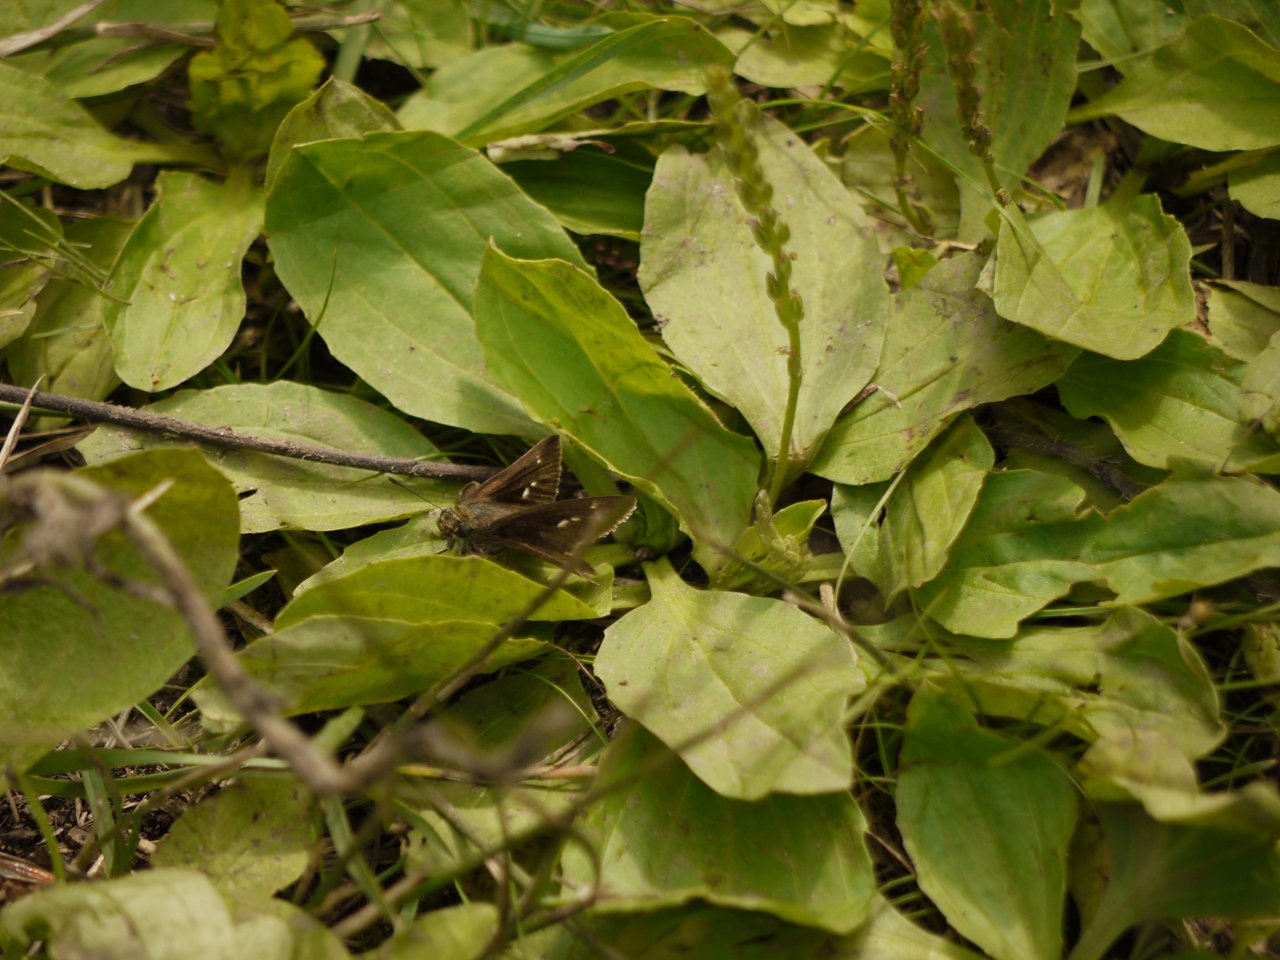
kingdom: Animalia
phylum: Arthropoda
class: Insecta
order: Lepidoptera
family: Hesperiidae
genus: Euphyes
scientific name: Euphyes vestris
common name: Dun Skipper
